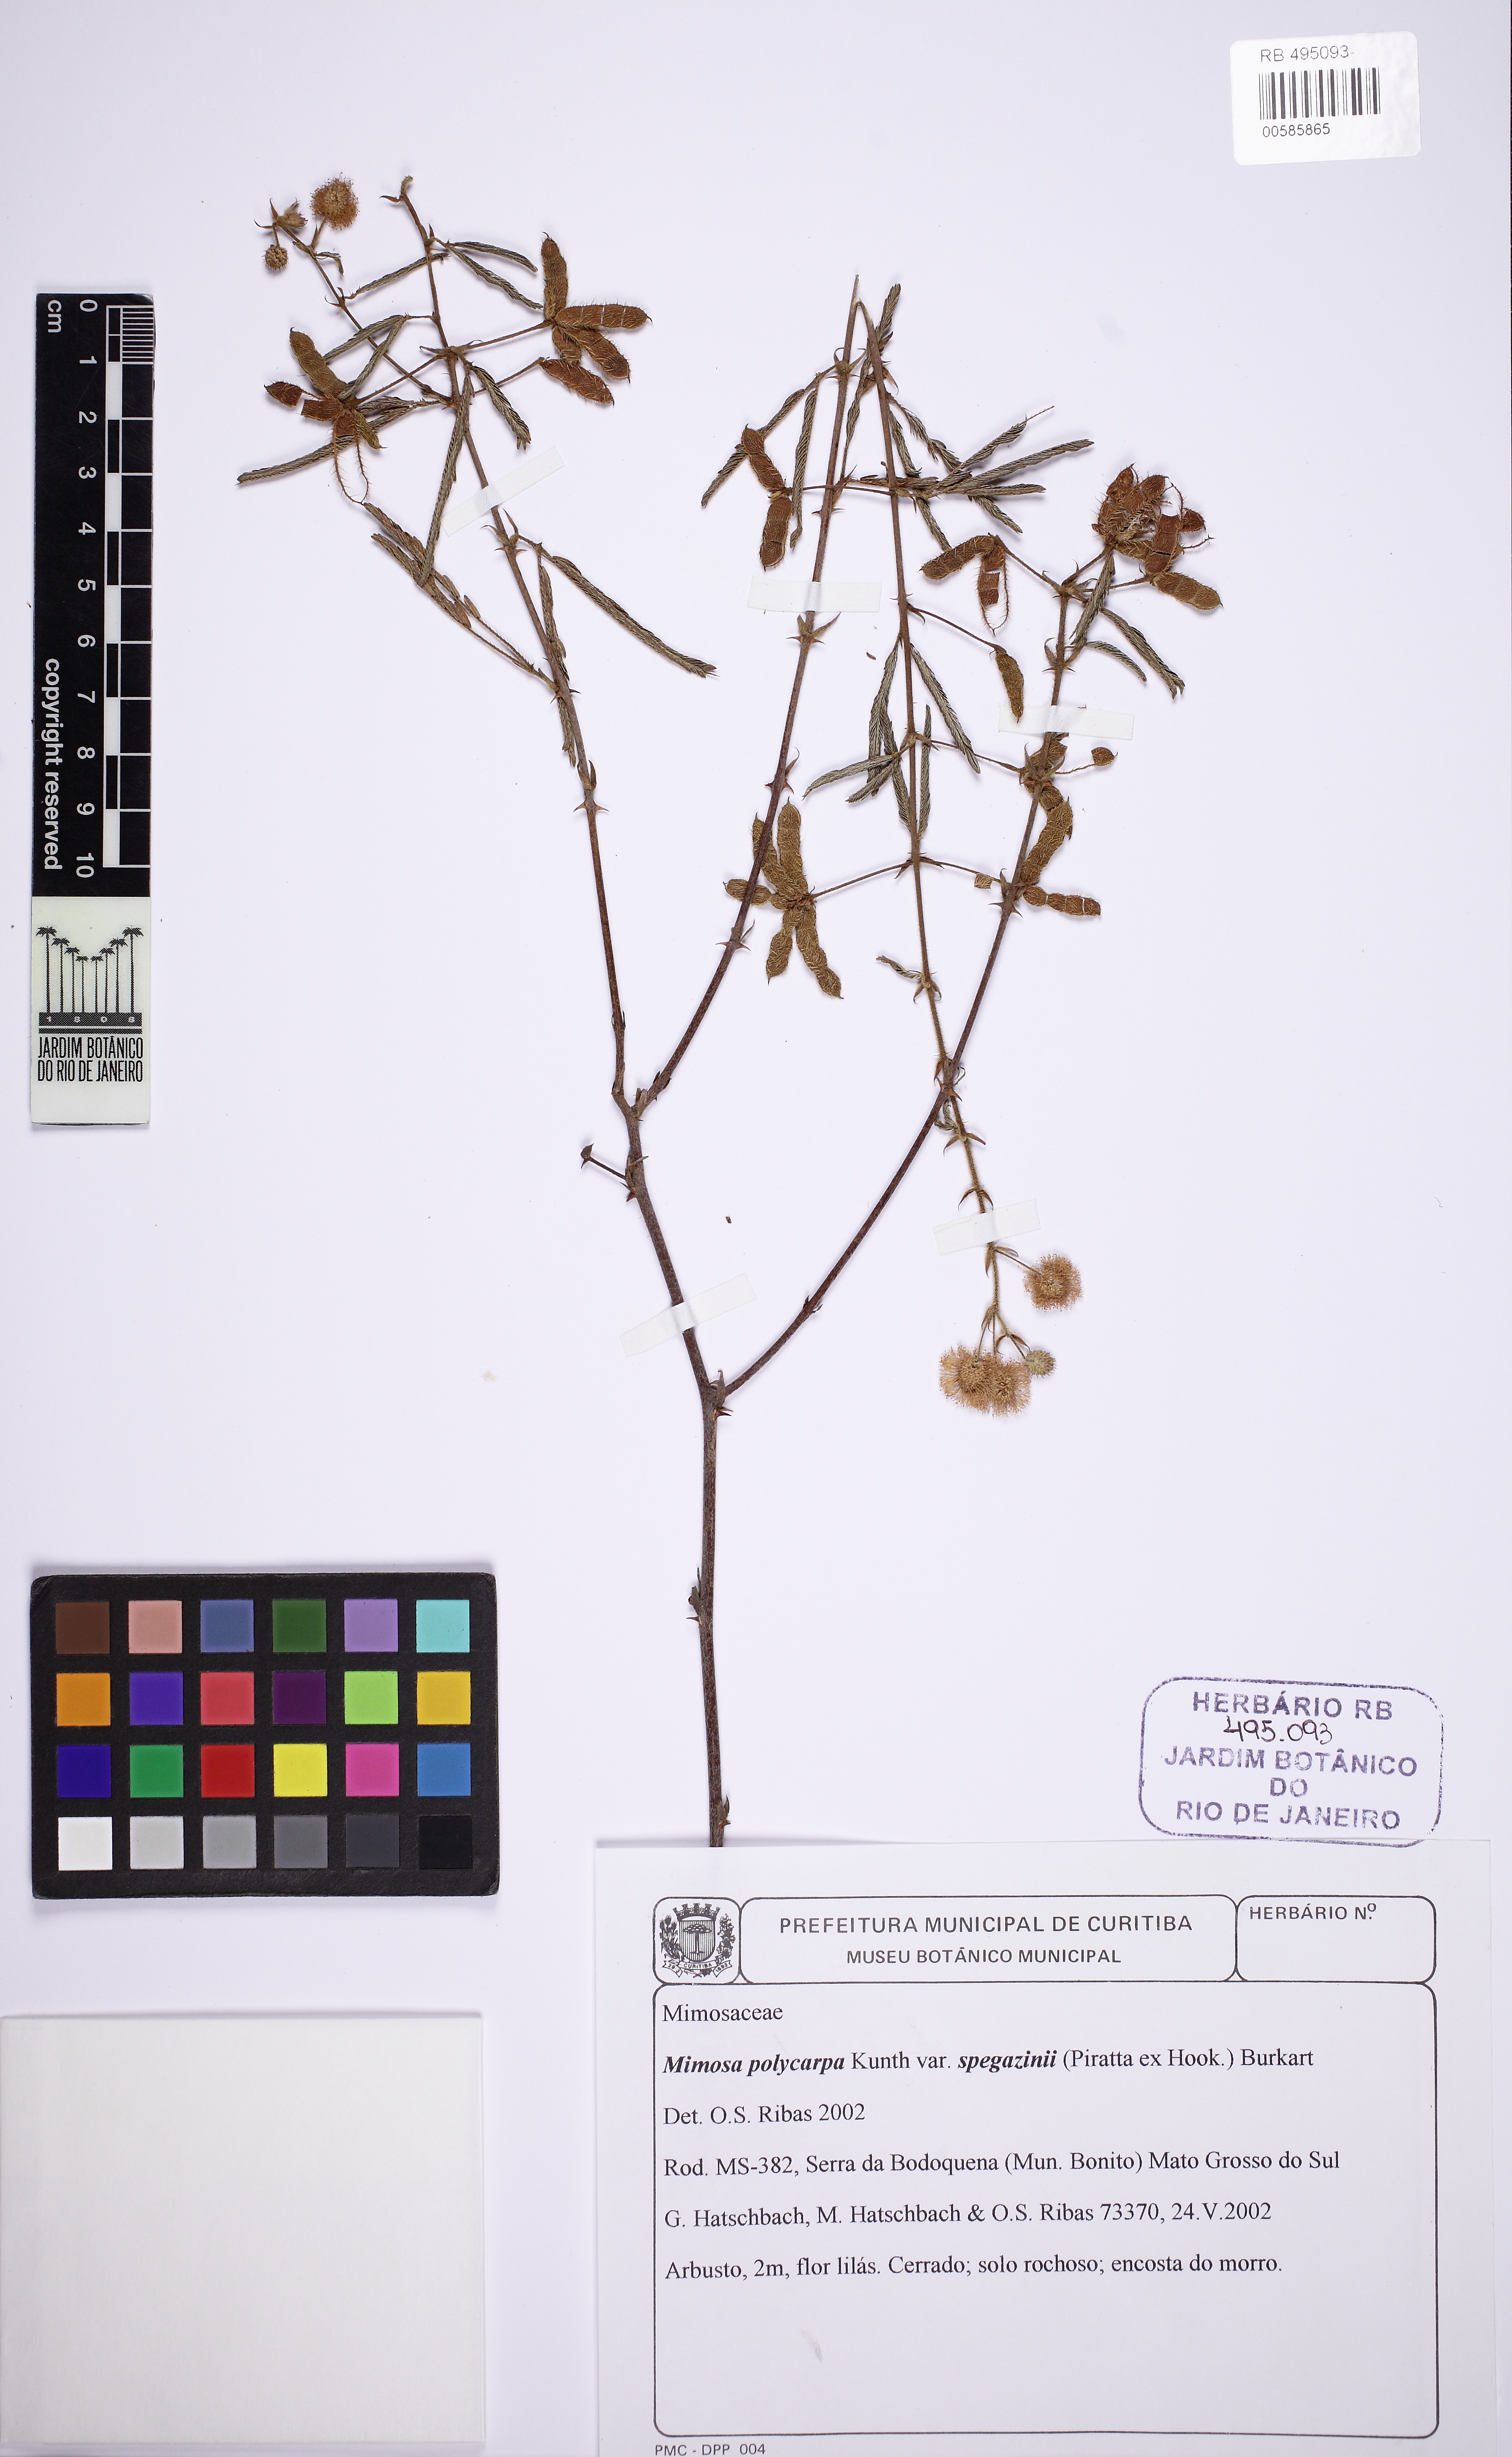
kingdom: Plantae
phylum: Tracheophyta
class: Magnoliopsida
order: Fabales
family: Fabaceae
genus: Mimosa
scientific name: Mimosa polycarpa
